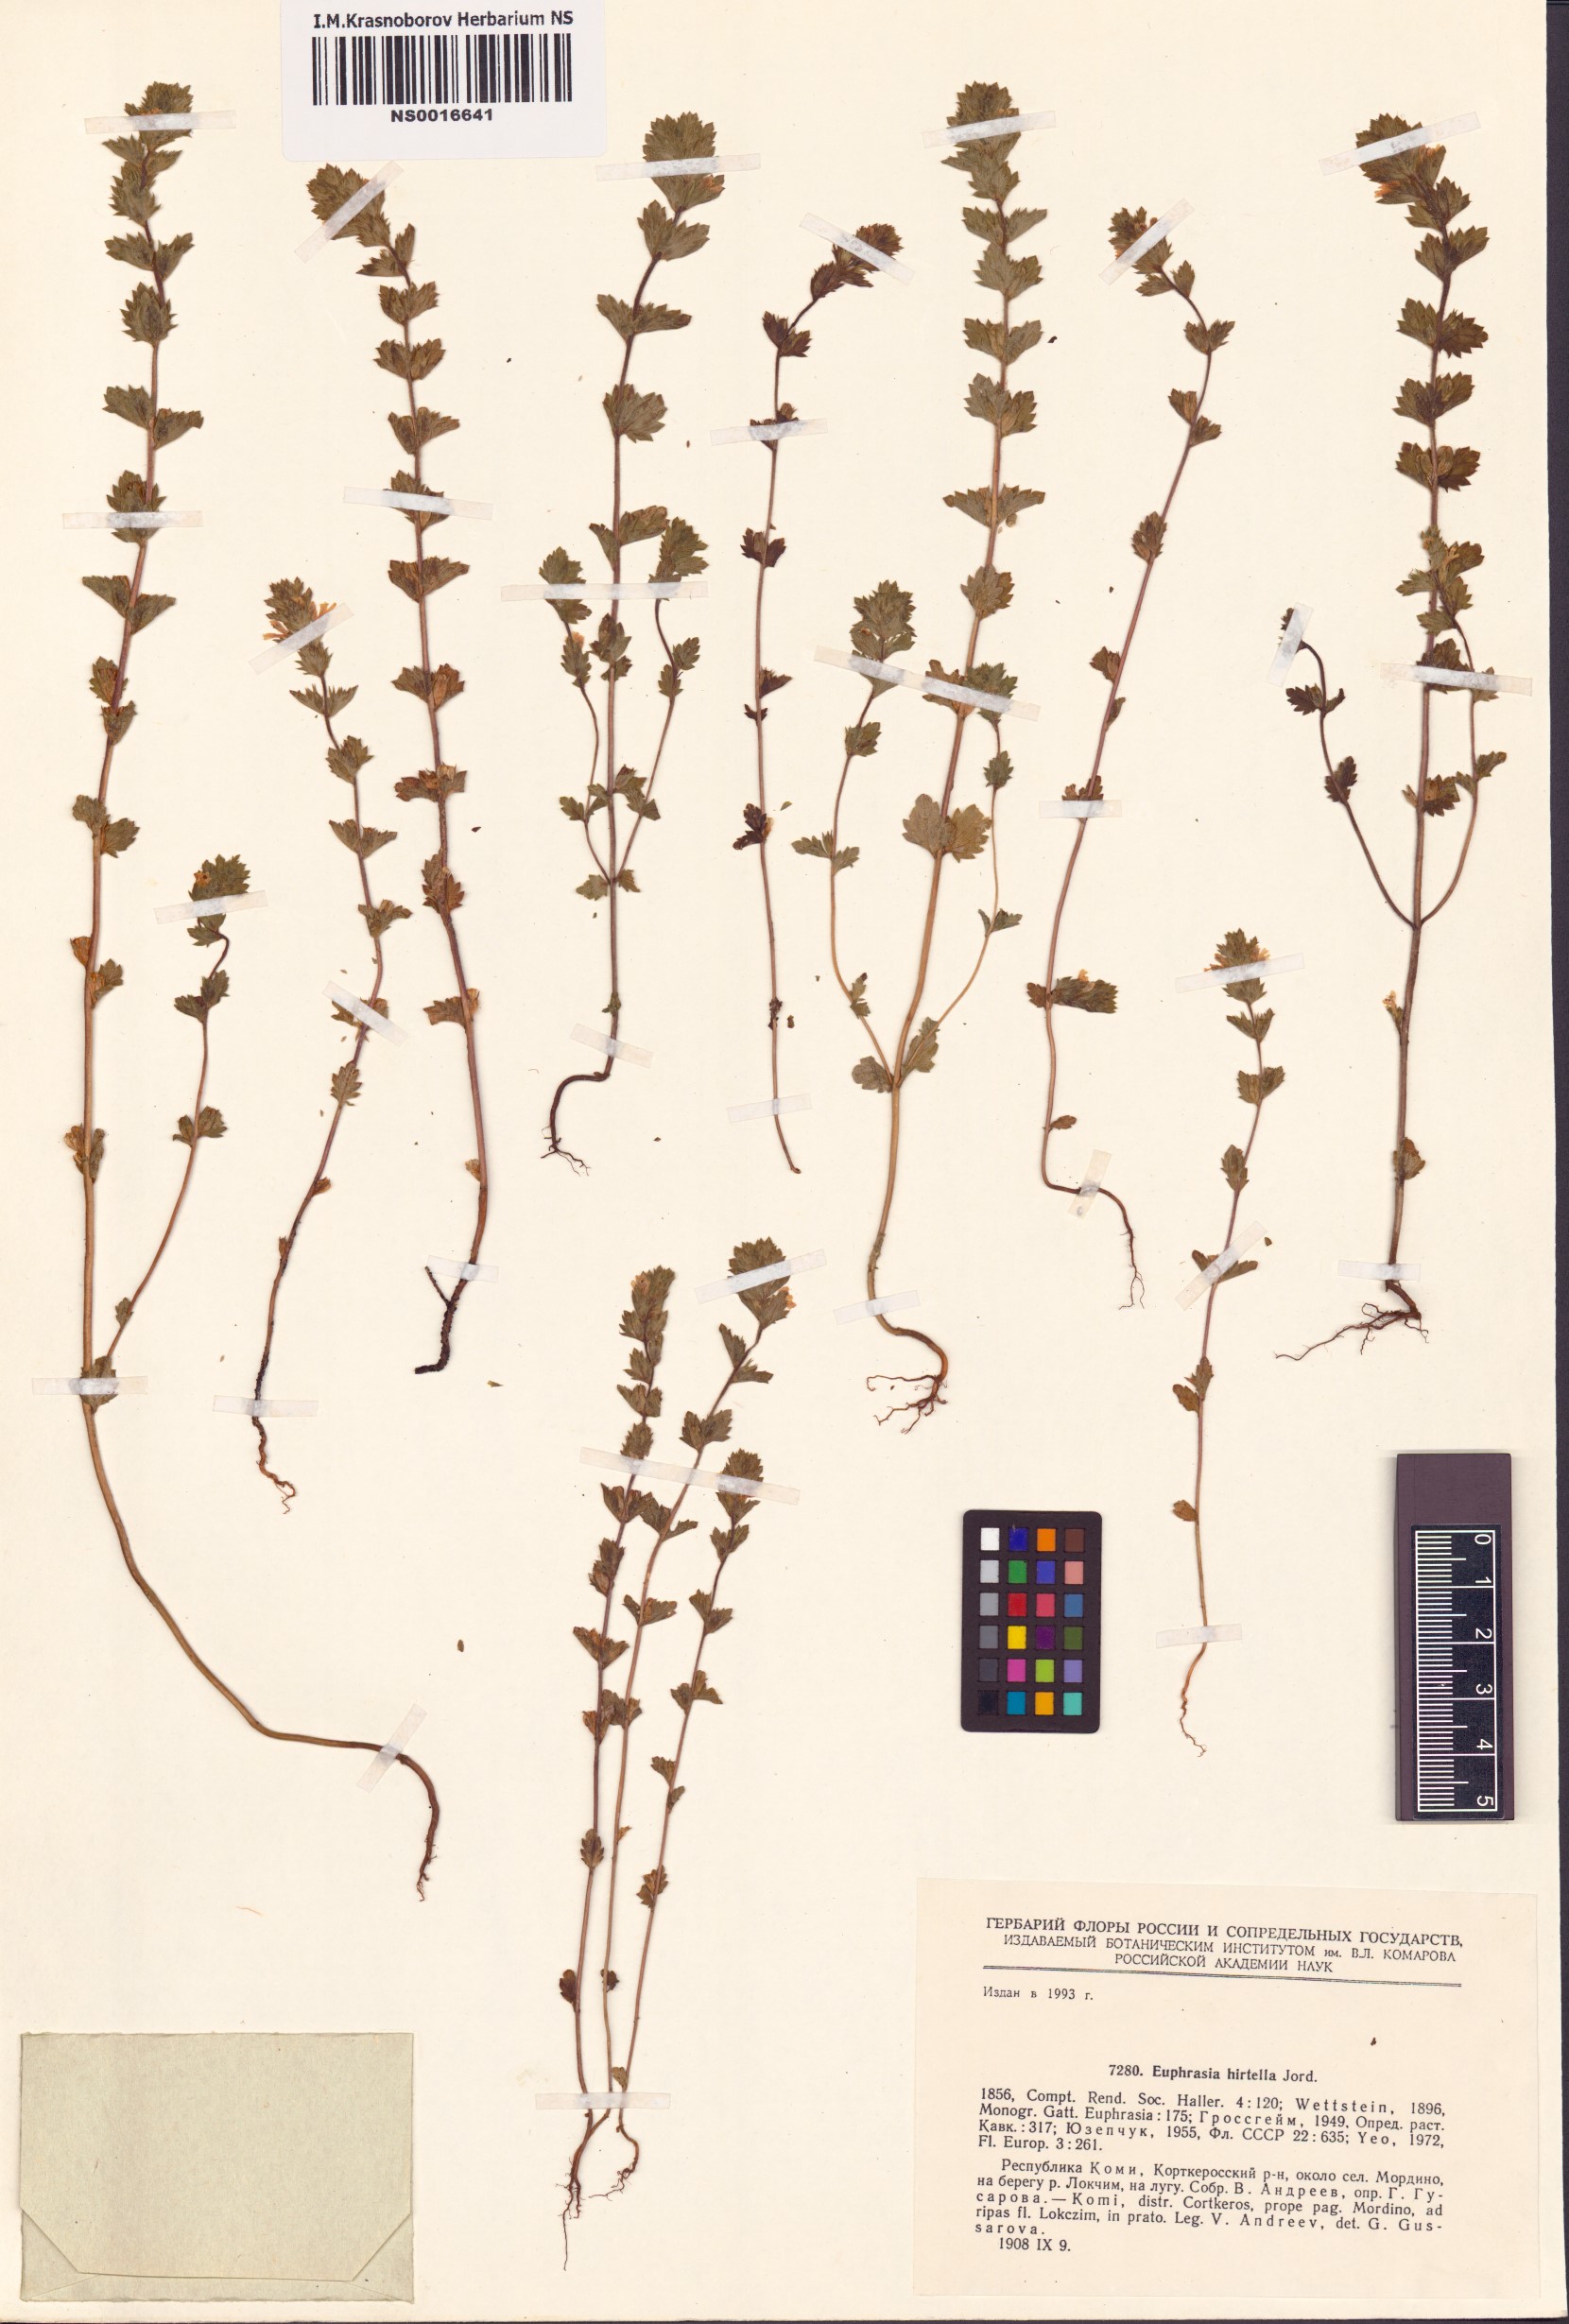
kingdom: Plantae
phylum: Tracheophyta
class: Magnoliopsida
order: Lamiales
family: Orobanchaceae
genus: Euphrasia
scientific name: Euphrasia hirtella
